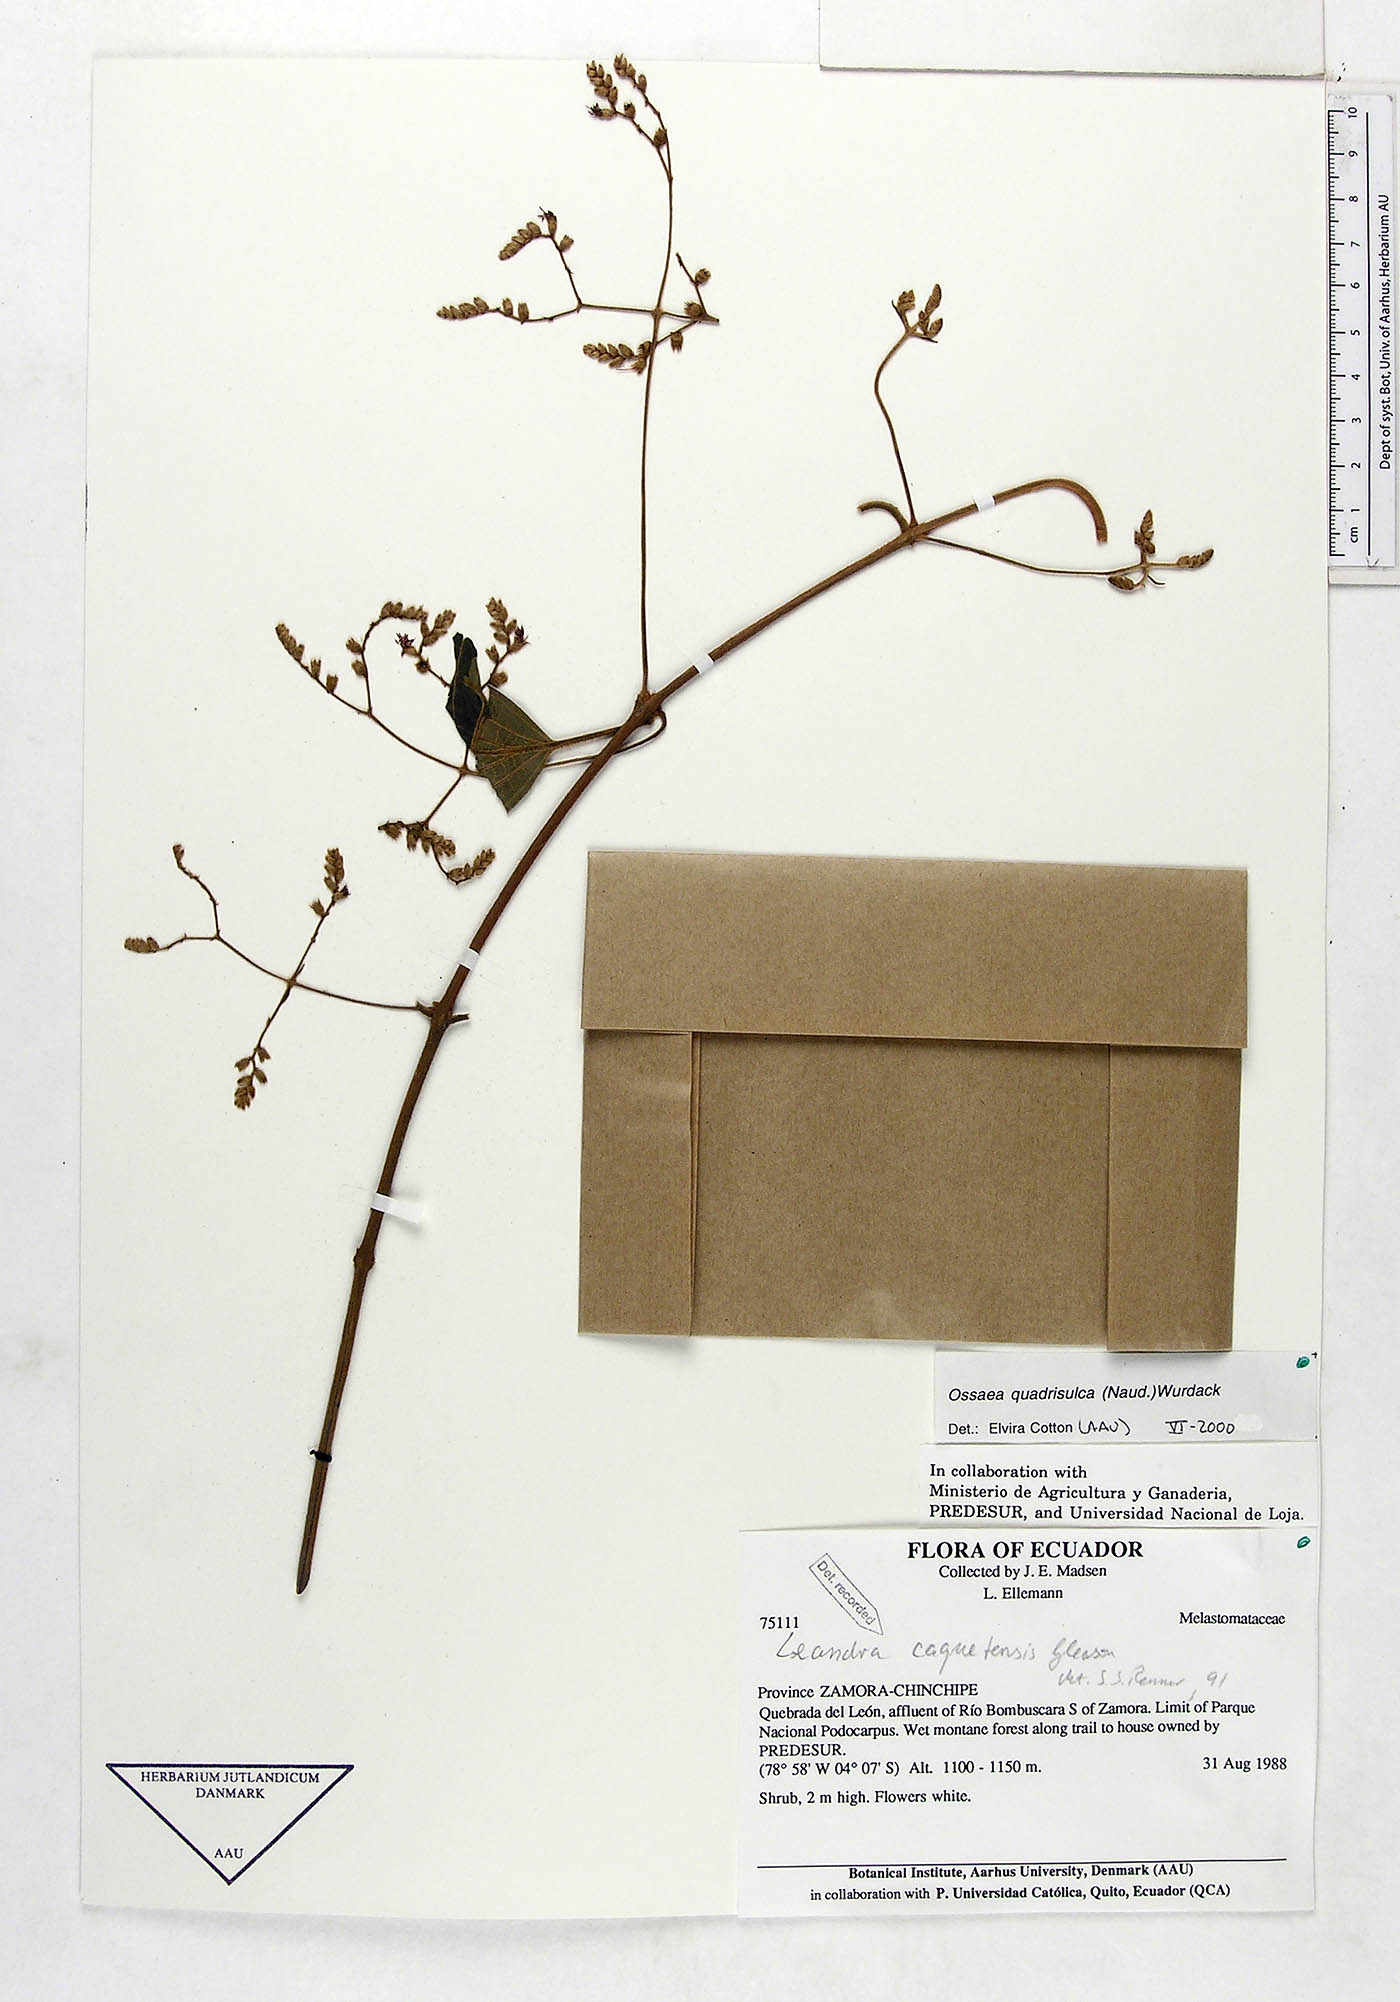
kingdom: Plantae
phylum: Tracheophyta
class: Magnoliopsida
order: Myrtales
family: Melastomataceae
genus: Miconia
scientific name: Miconia quadrisulca
